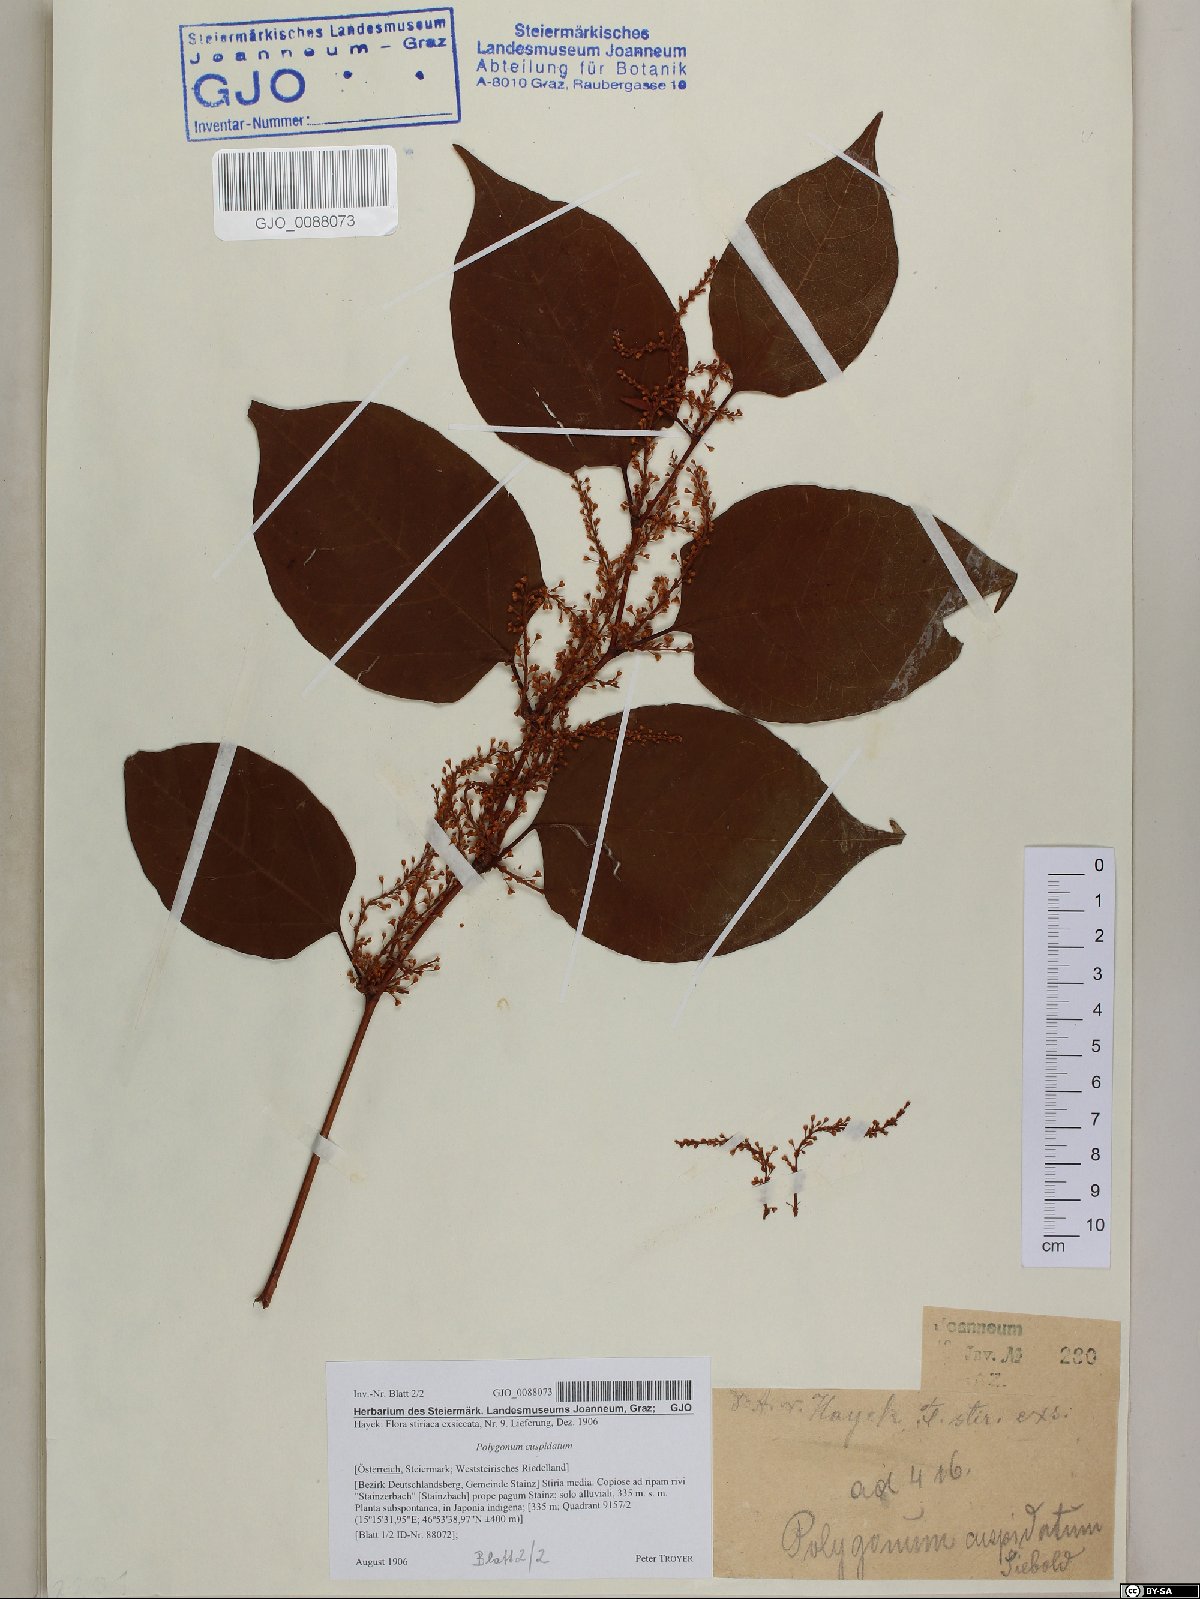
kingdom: Plantae
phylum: Tracheophyta
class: Magnoliopsida
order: Caryophyllales
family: Polygonaceae
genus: Reynoutria
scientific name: Reynoutria japonica
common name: Japanese knotweed
